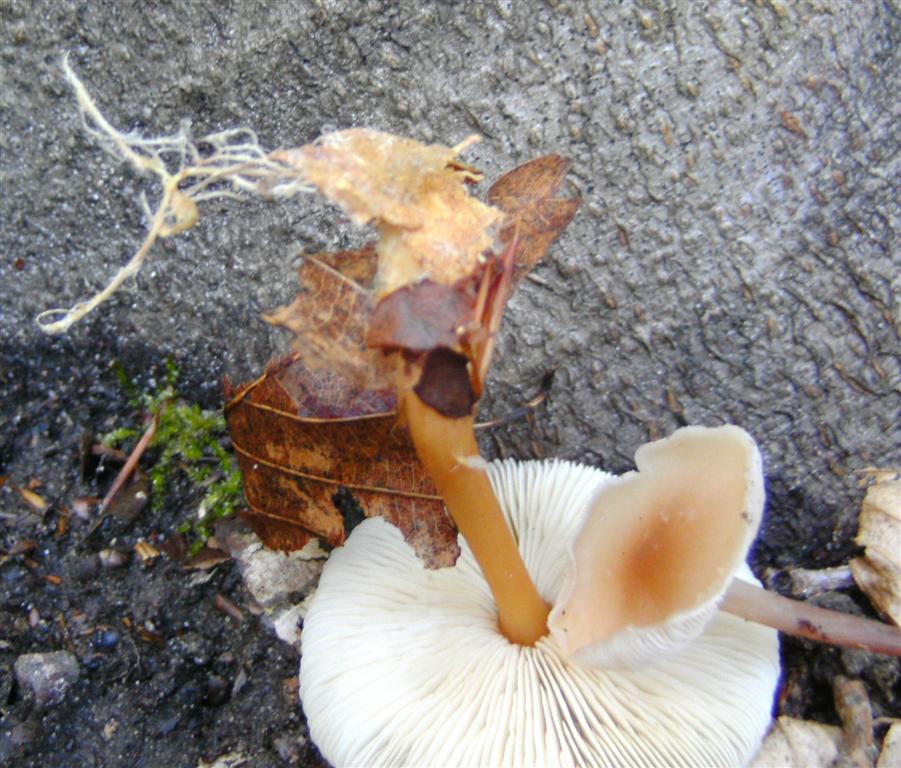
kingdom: Fungi
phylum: Basidiomycota
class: Agaricomycetes
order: Agaricales
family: Omphalotaceae
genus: Gymnopus
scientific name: Gymnopus dryophilus
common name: løv-fladhat
